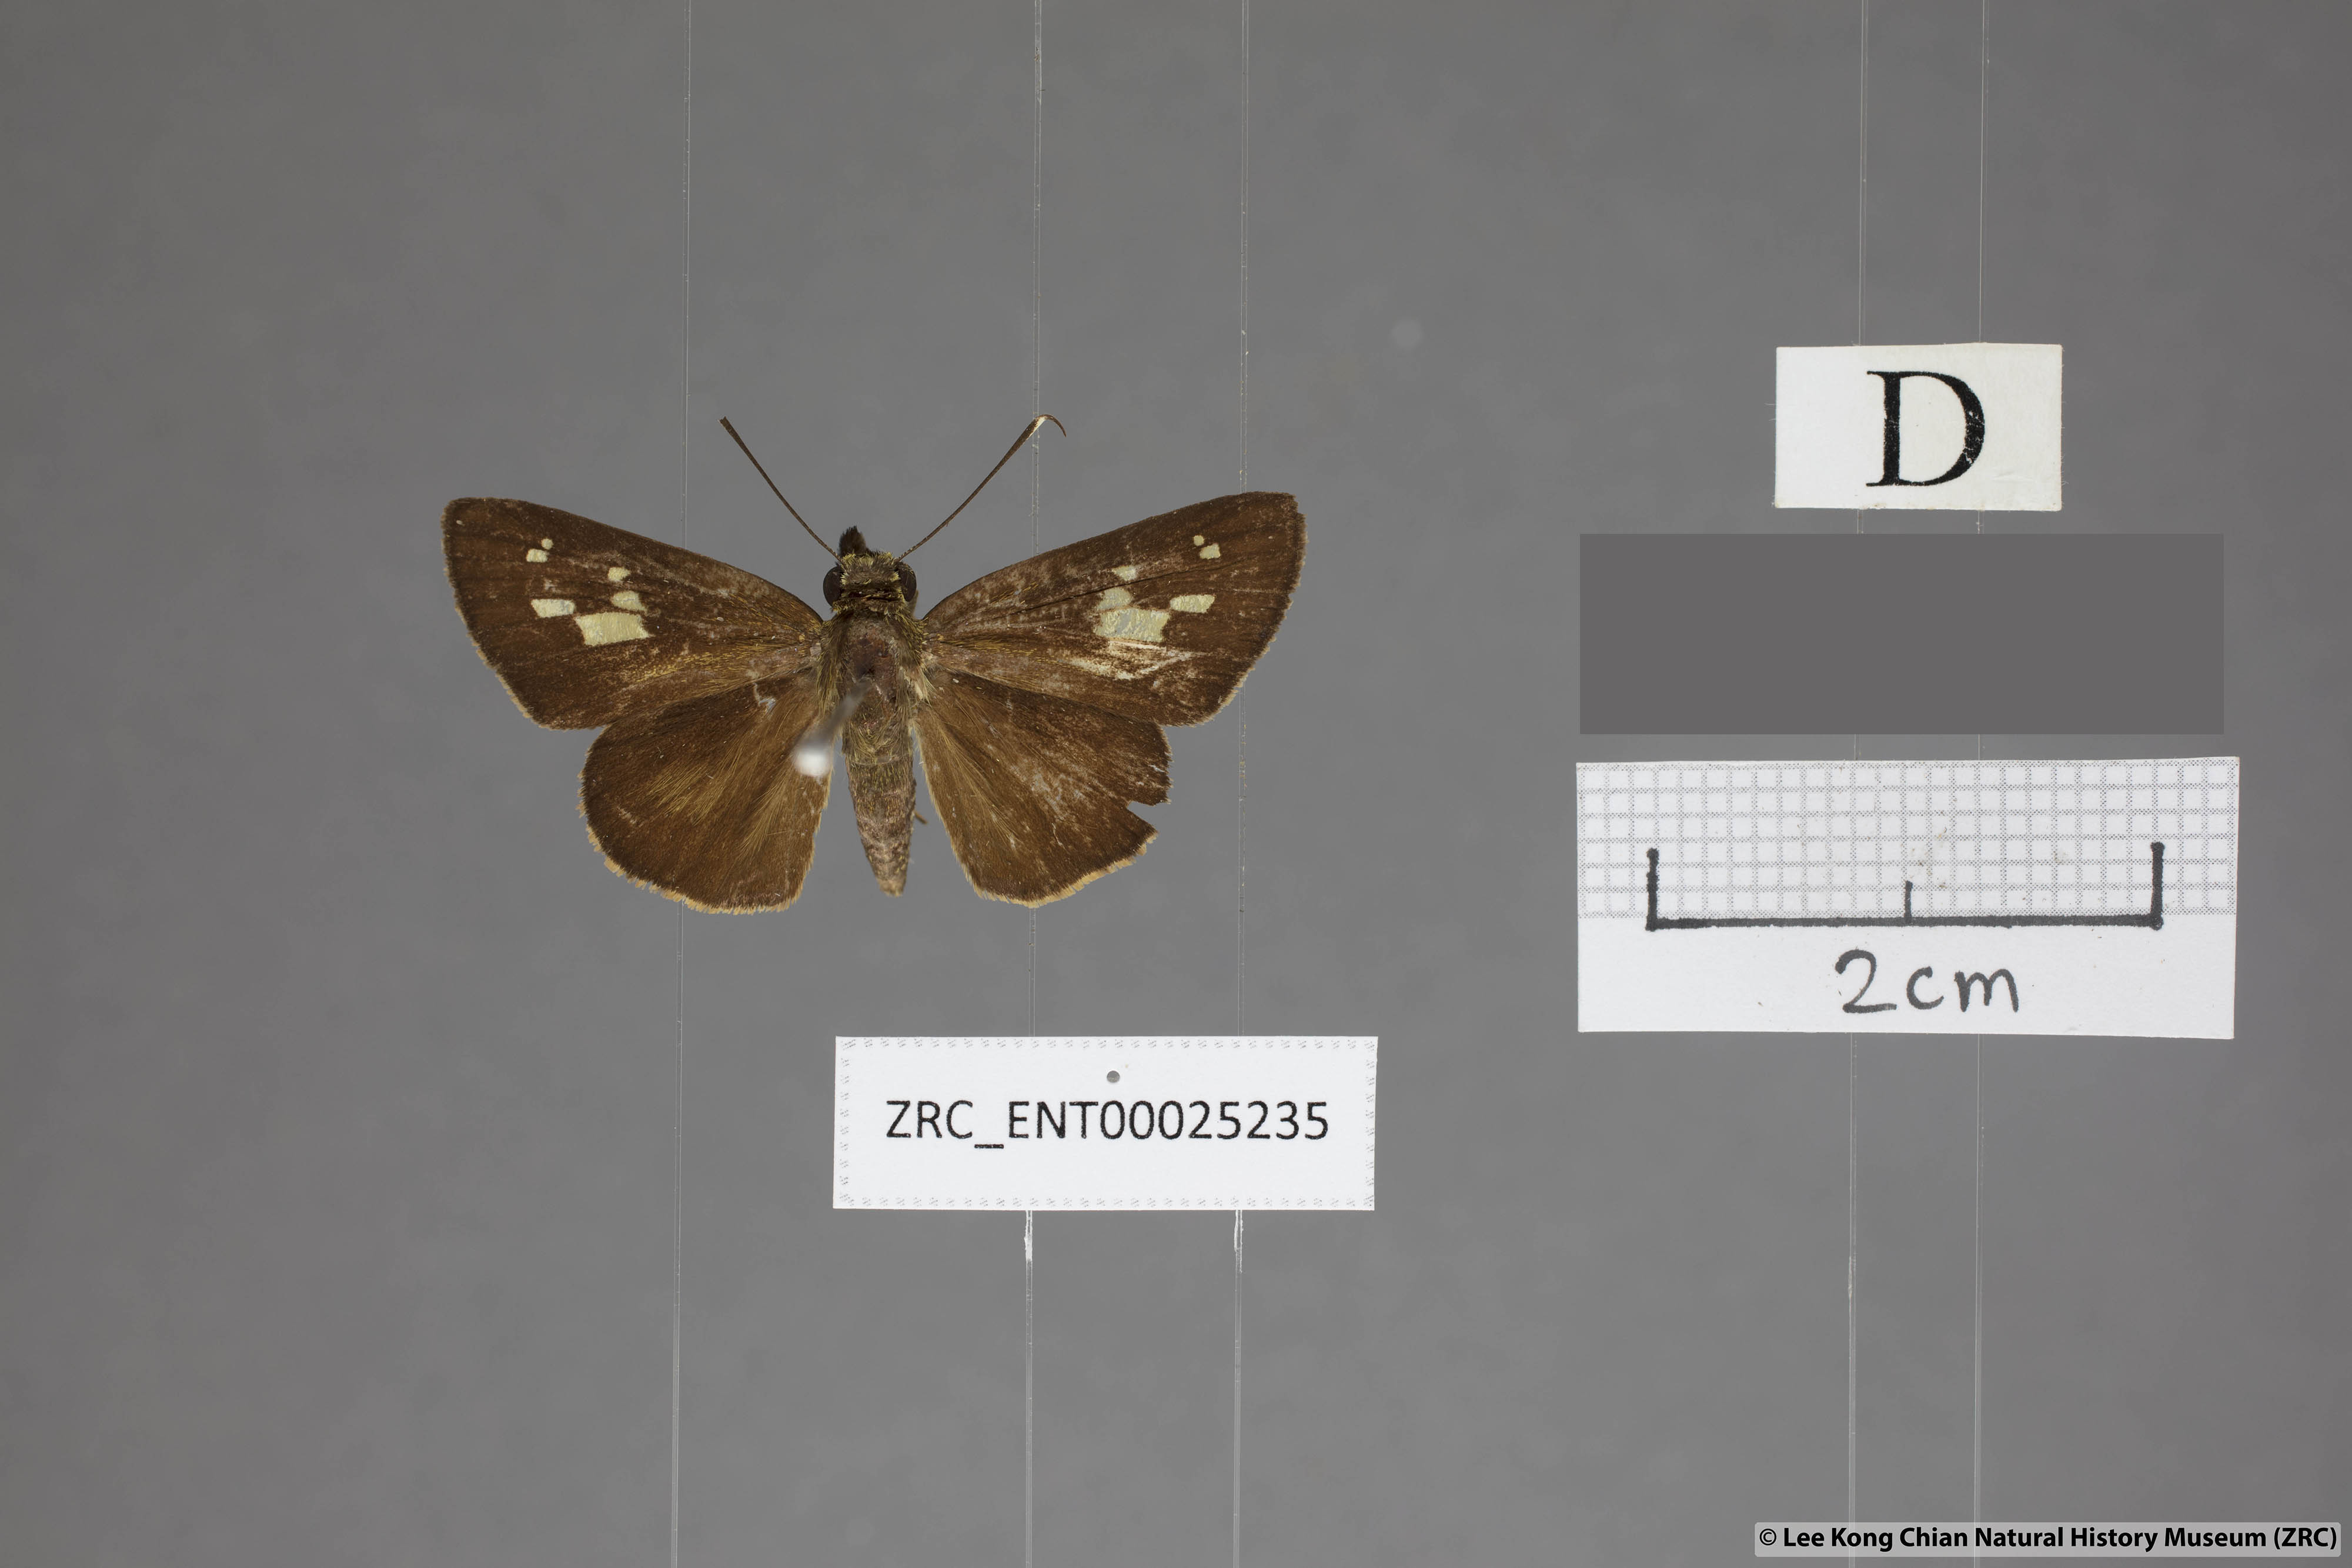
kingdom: Animalia
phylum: Arthropoda
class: Insecta
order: Lepidoptera
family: Hesperiidae
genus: Salanoemia
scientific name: Salanoemia fuscicornis
